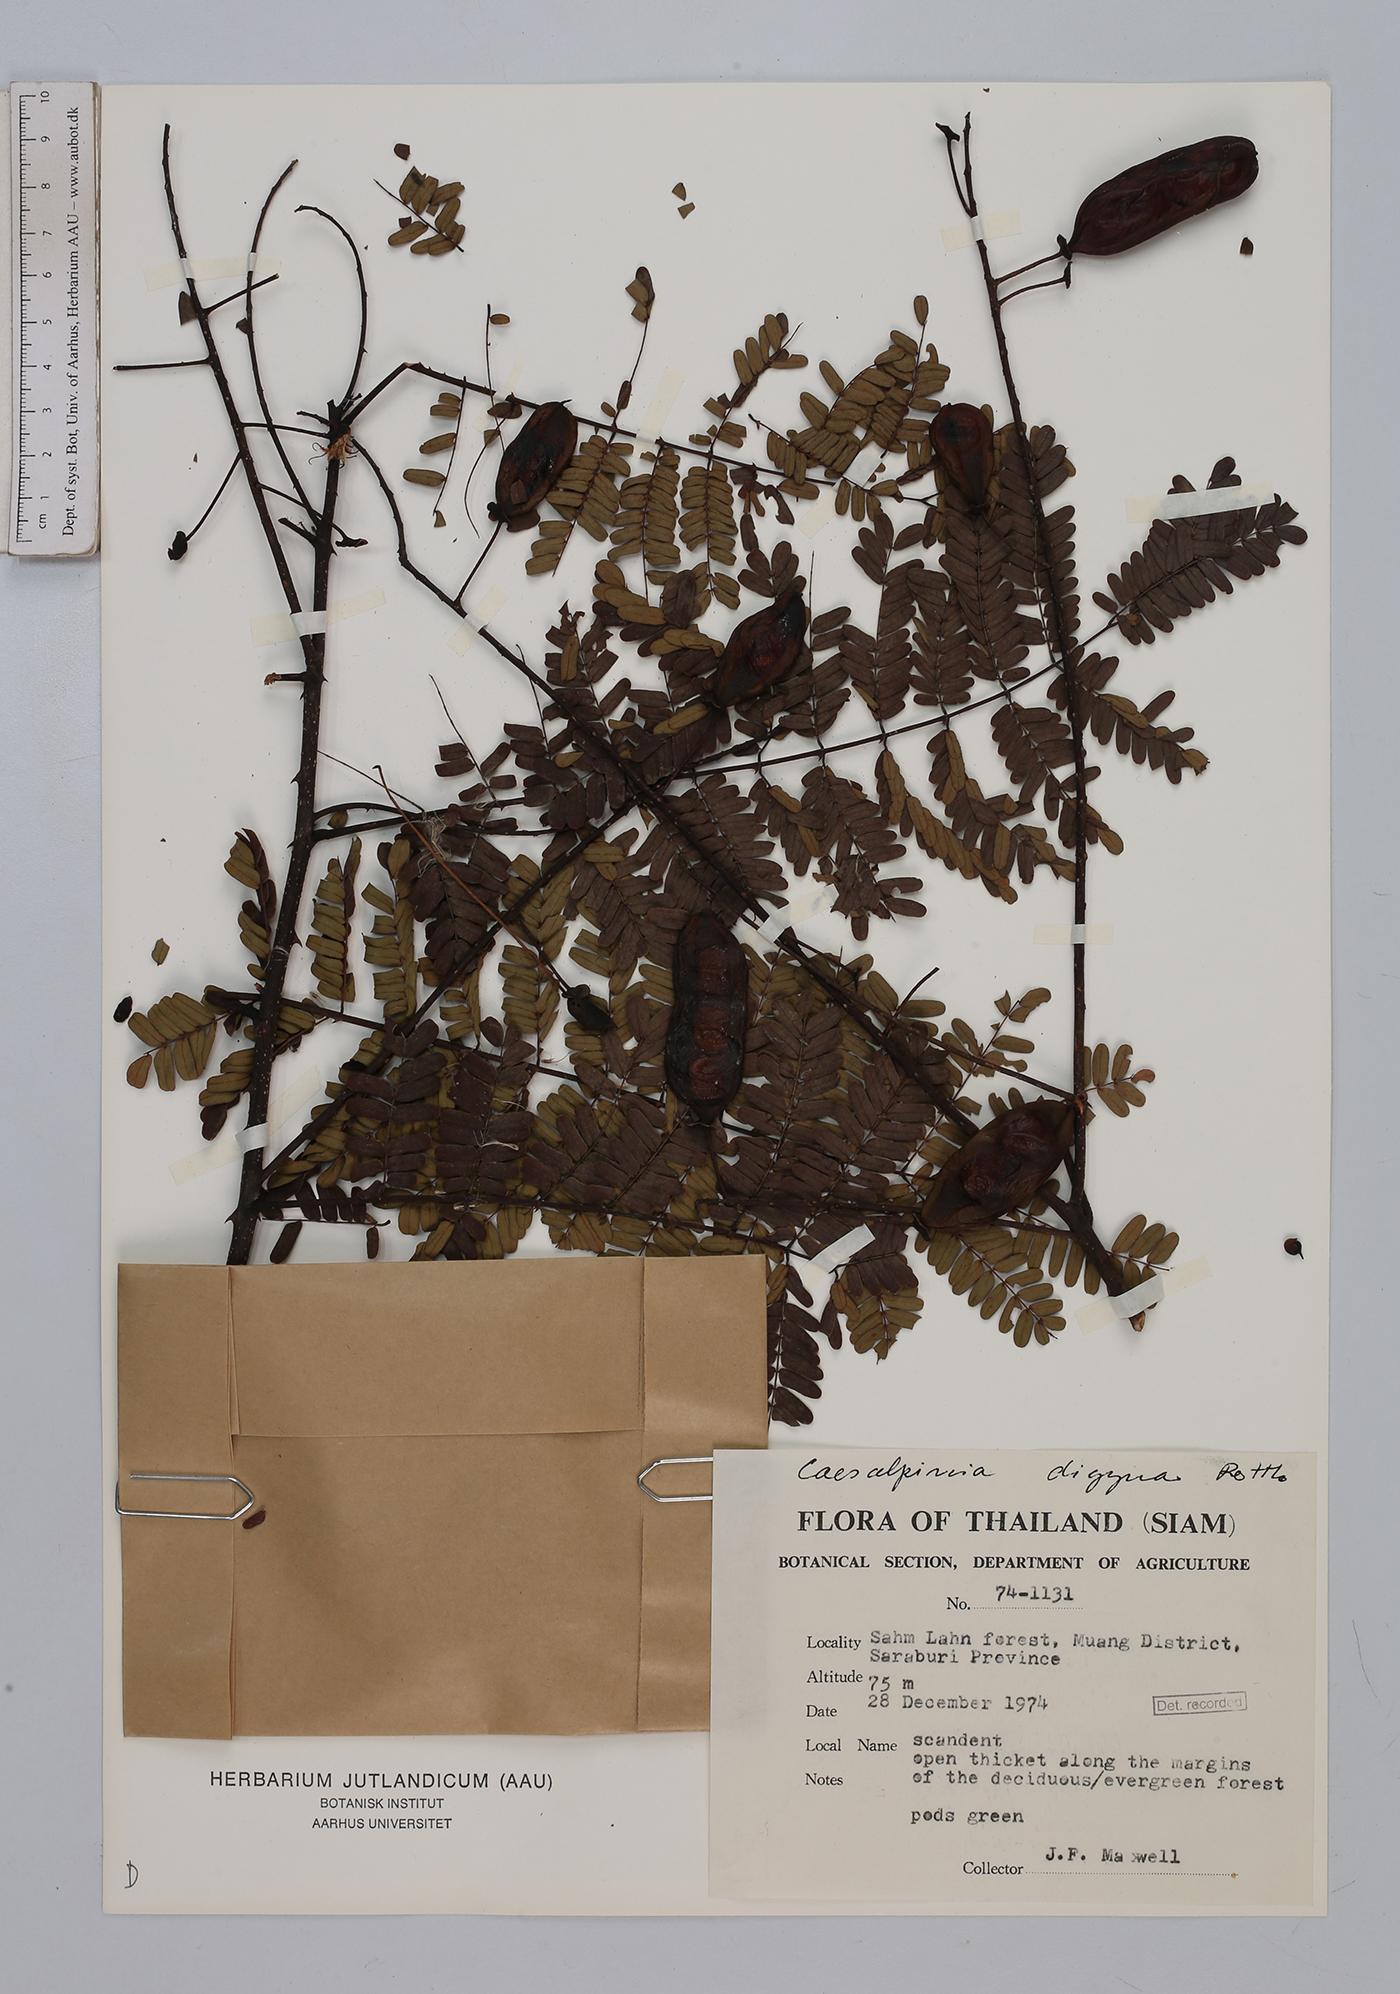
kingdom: Plantae
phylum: Tracheophyta
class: Magnoliopsida
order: Fabales
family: Fabaceae
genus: Moullava
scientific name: Moullava digyna
